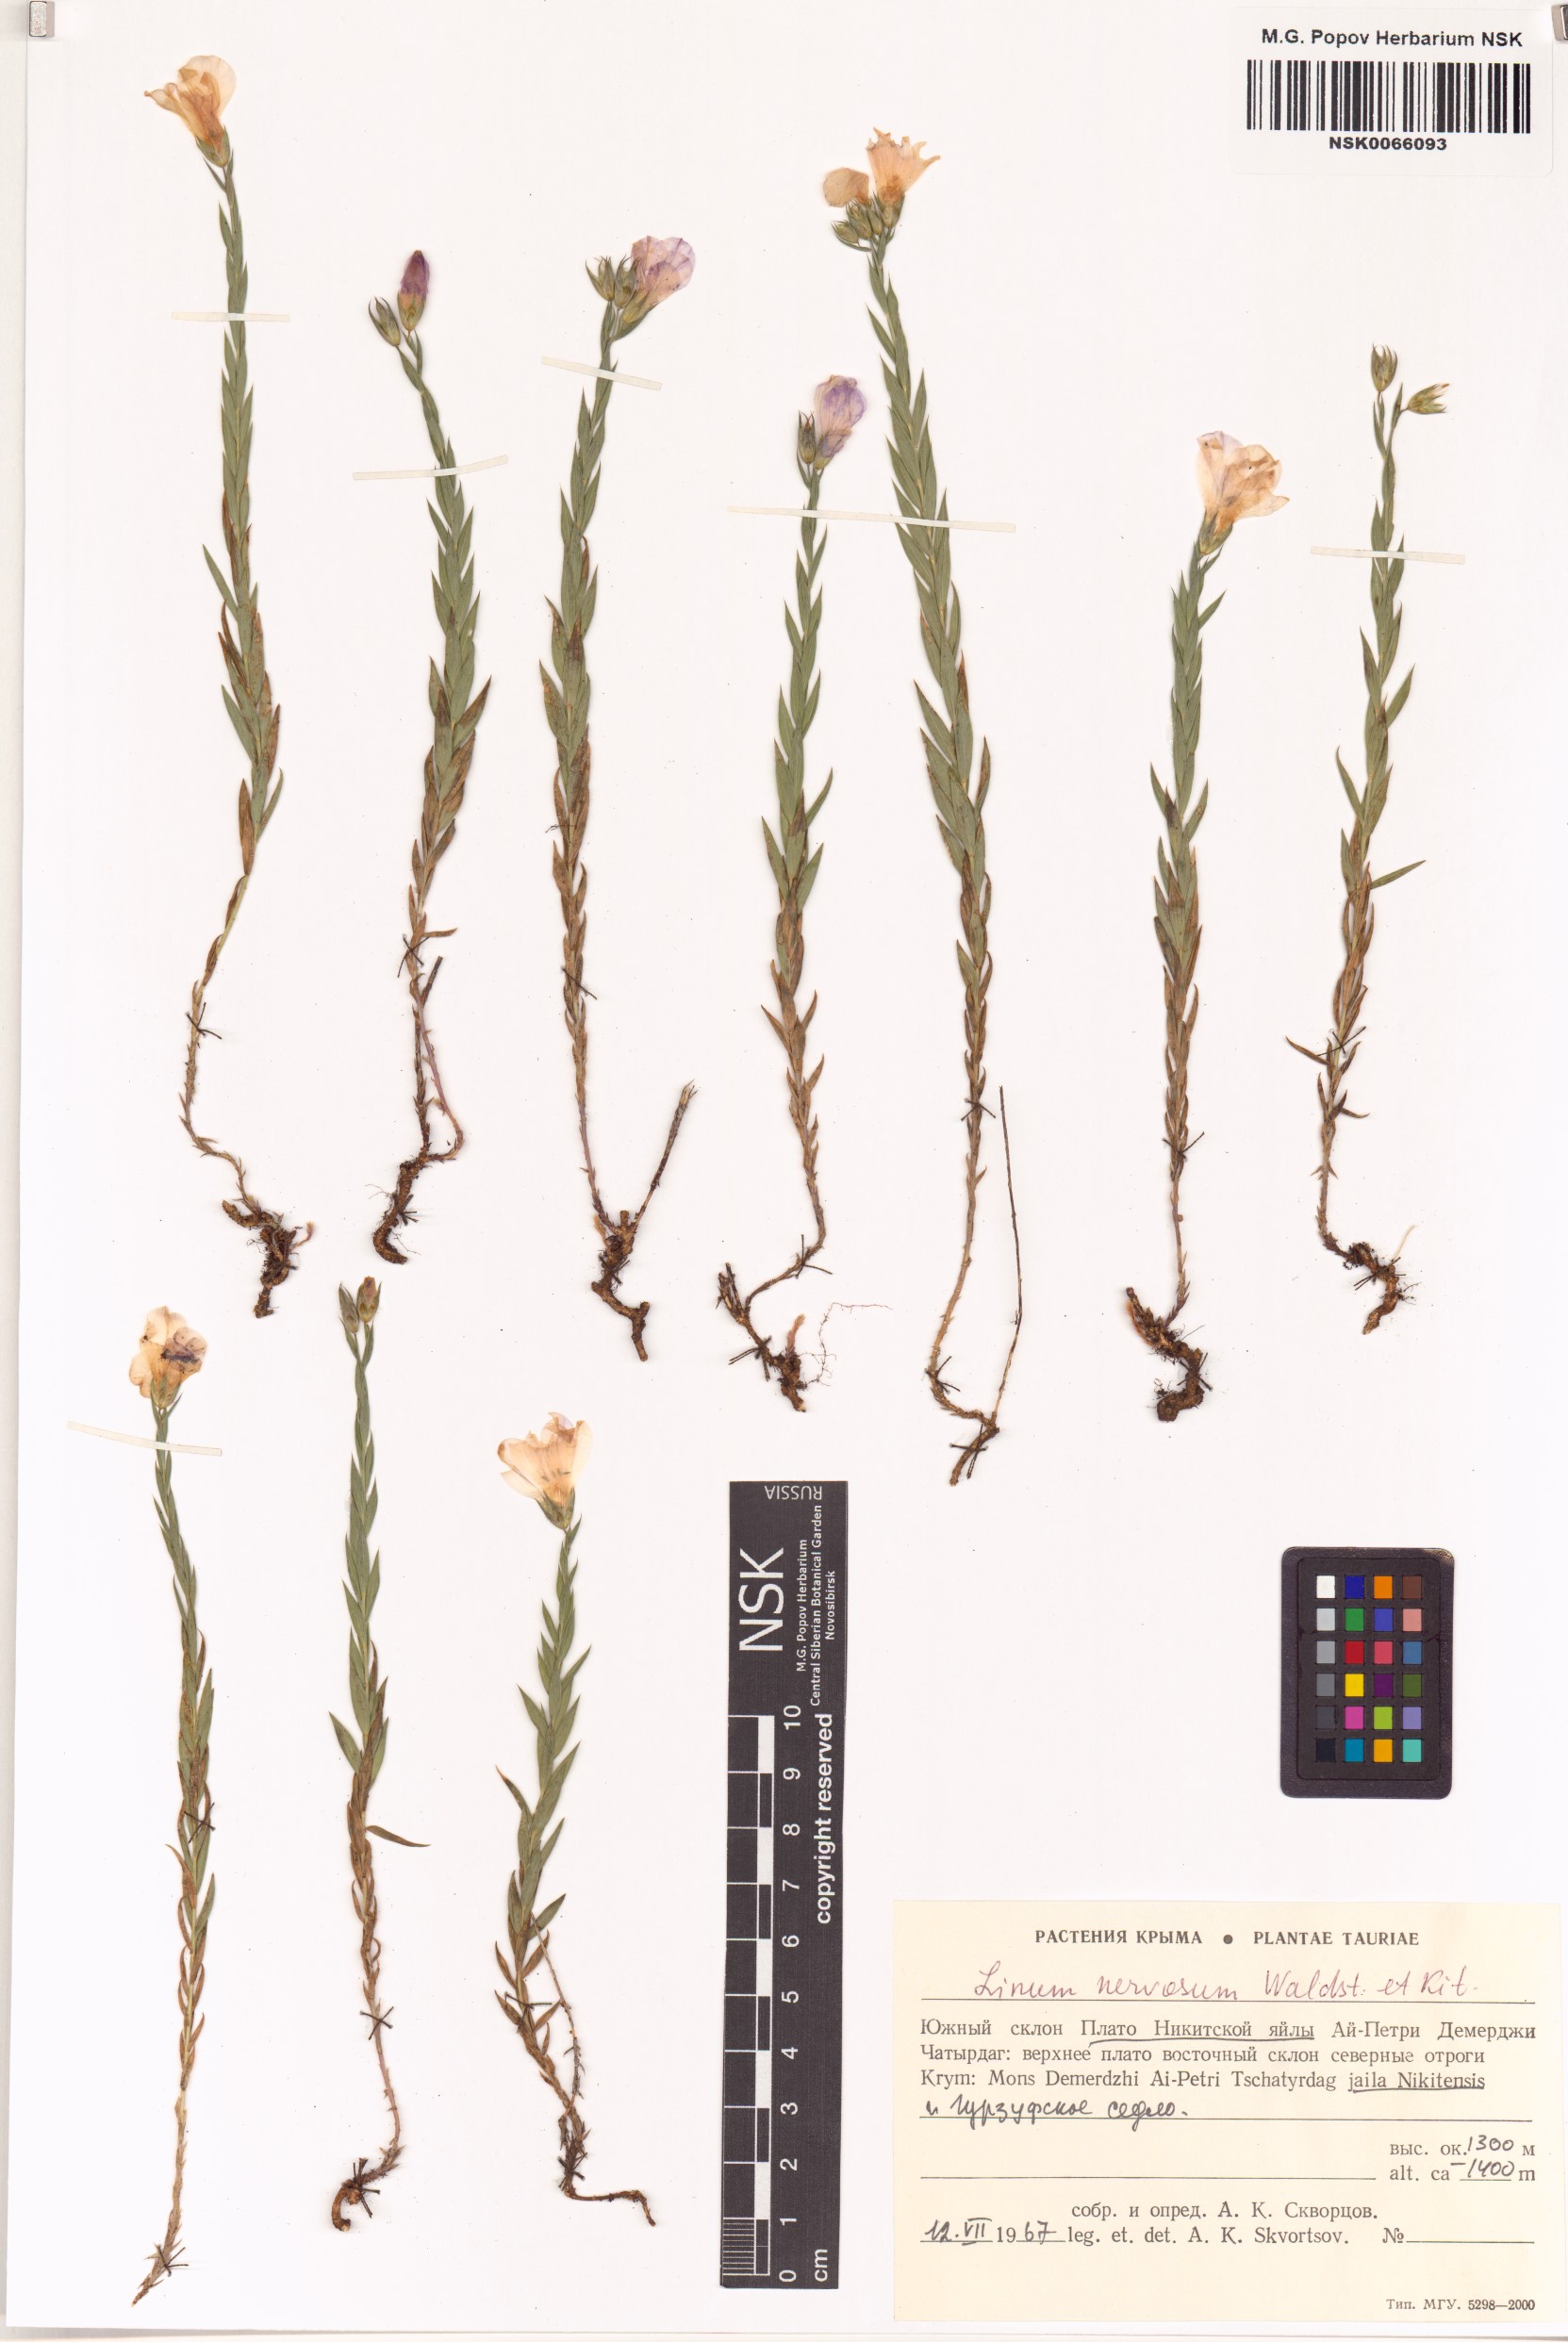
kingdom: Plantae
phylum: Tracheophyta
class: Magnoliopsida
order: Malpighiales
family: Linaceae
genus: Linum
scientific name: Linum nervosum
